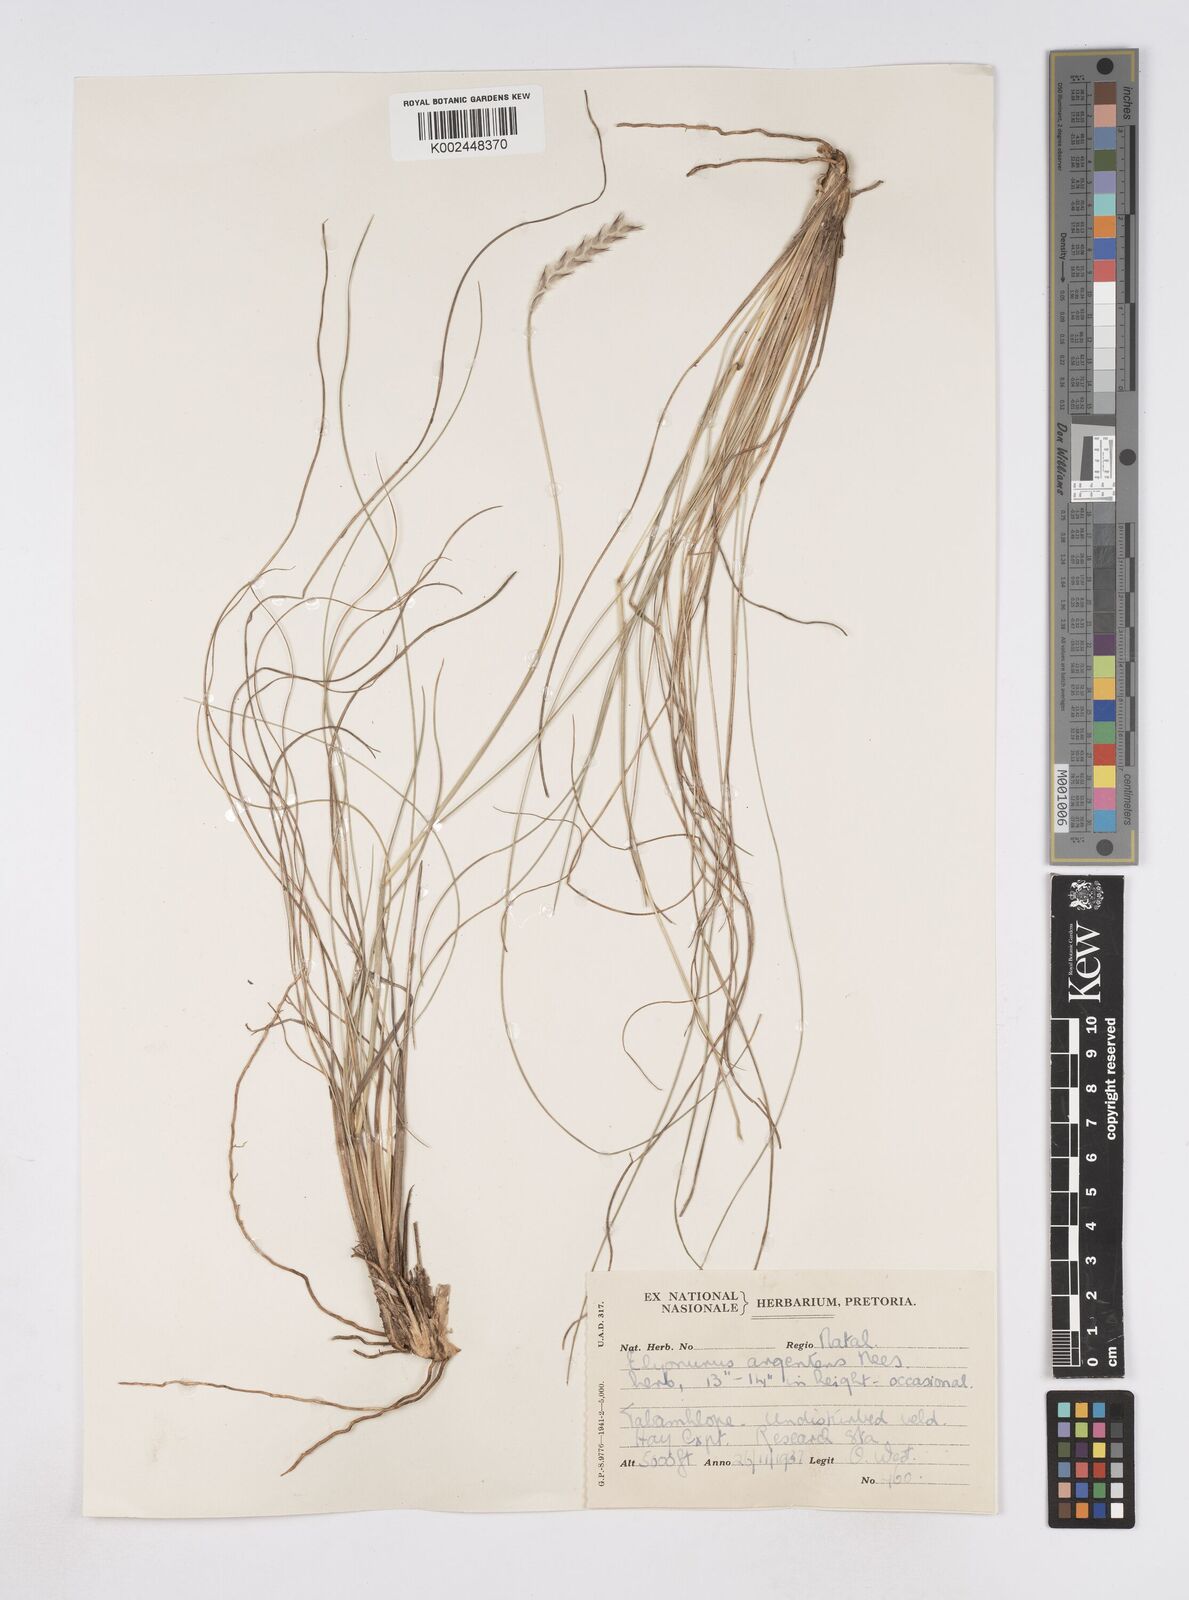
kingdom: Plantae
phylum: Tracheophyta
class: Liliopsida
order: Poales
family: Poaceae
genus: Elionurus
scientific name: Elionurus muticus
